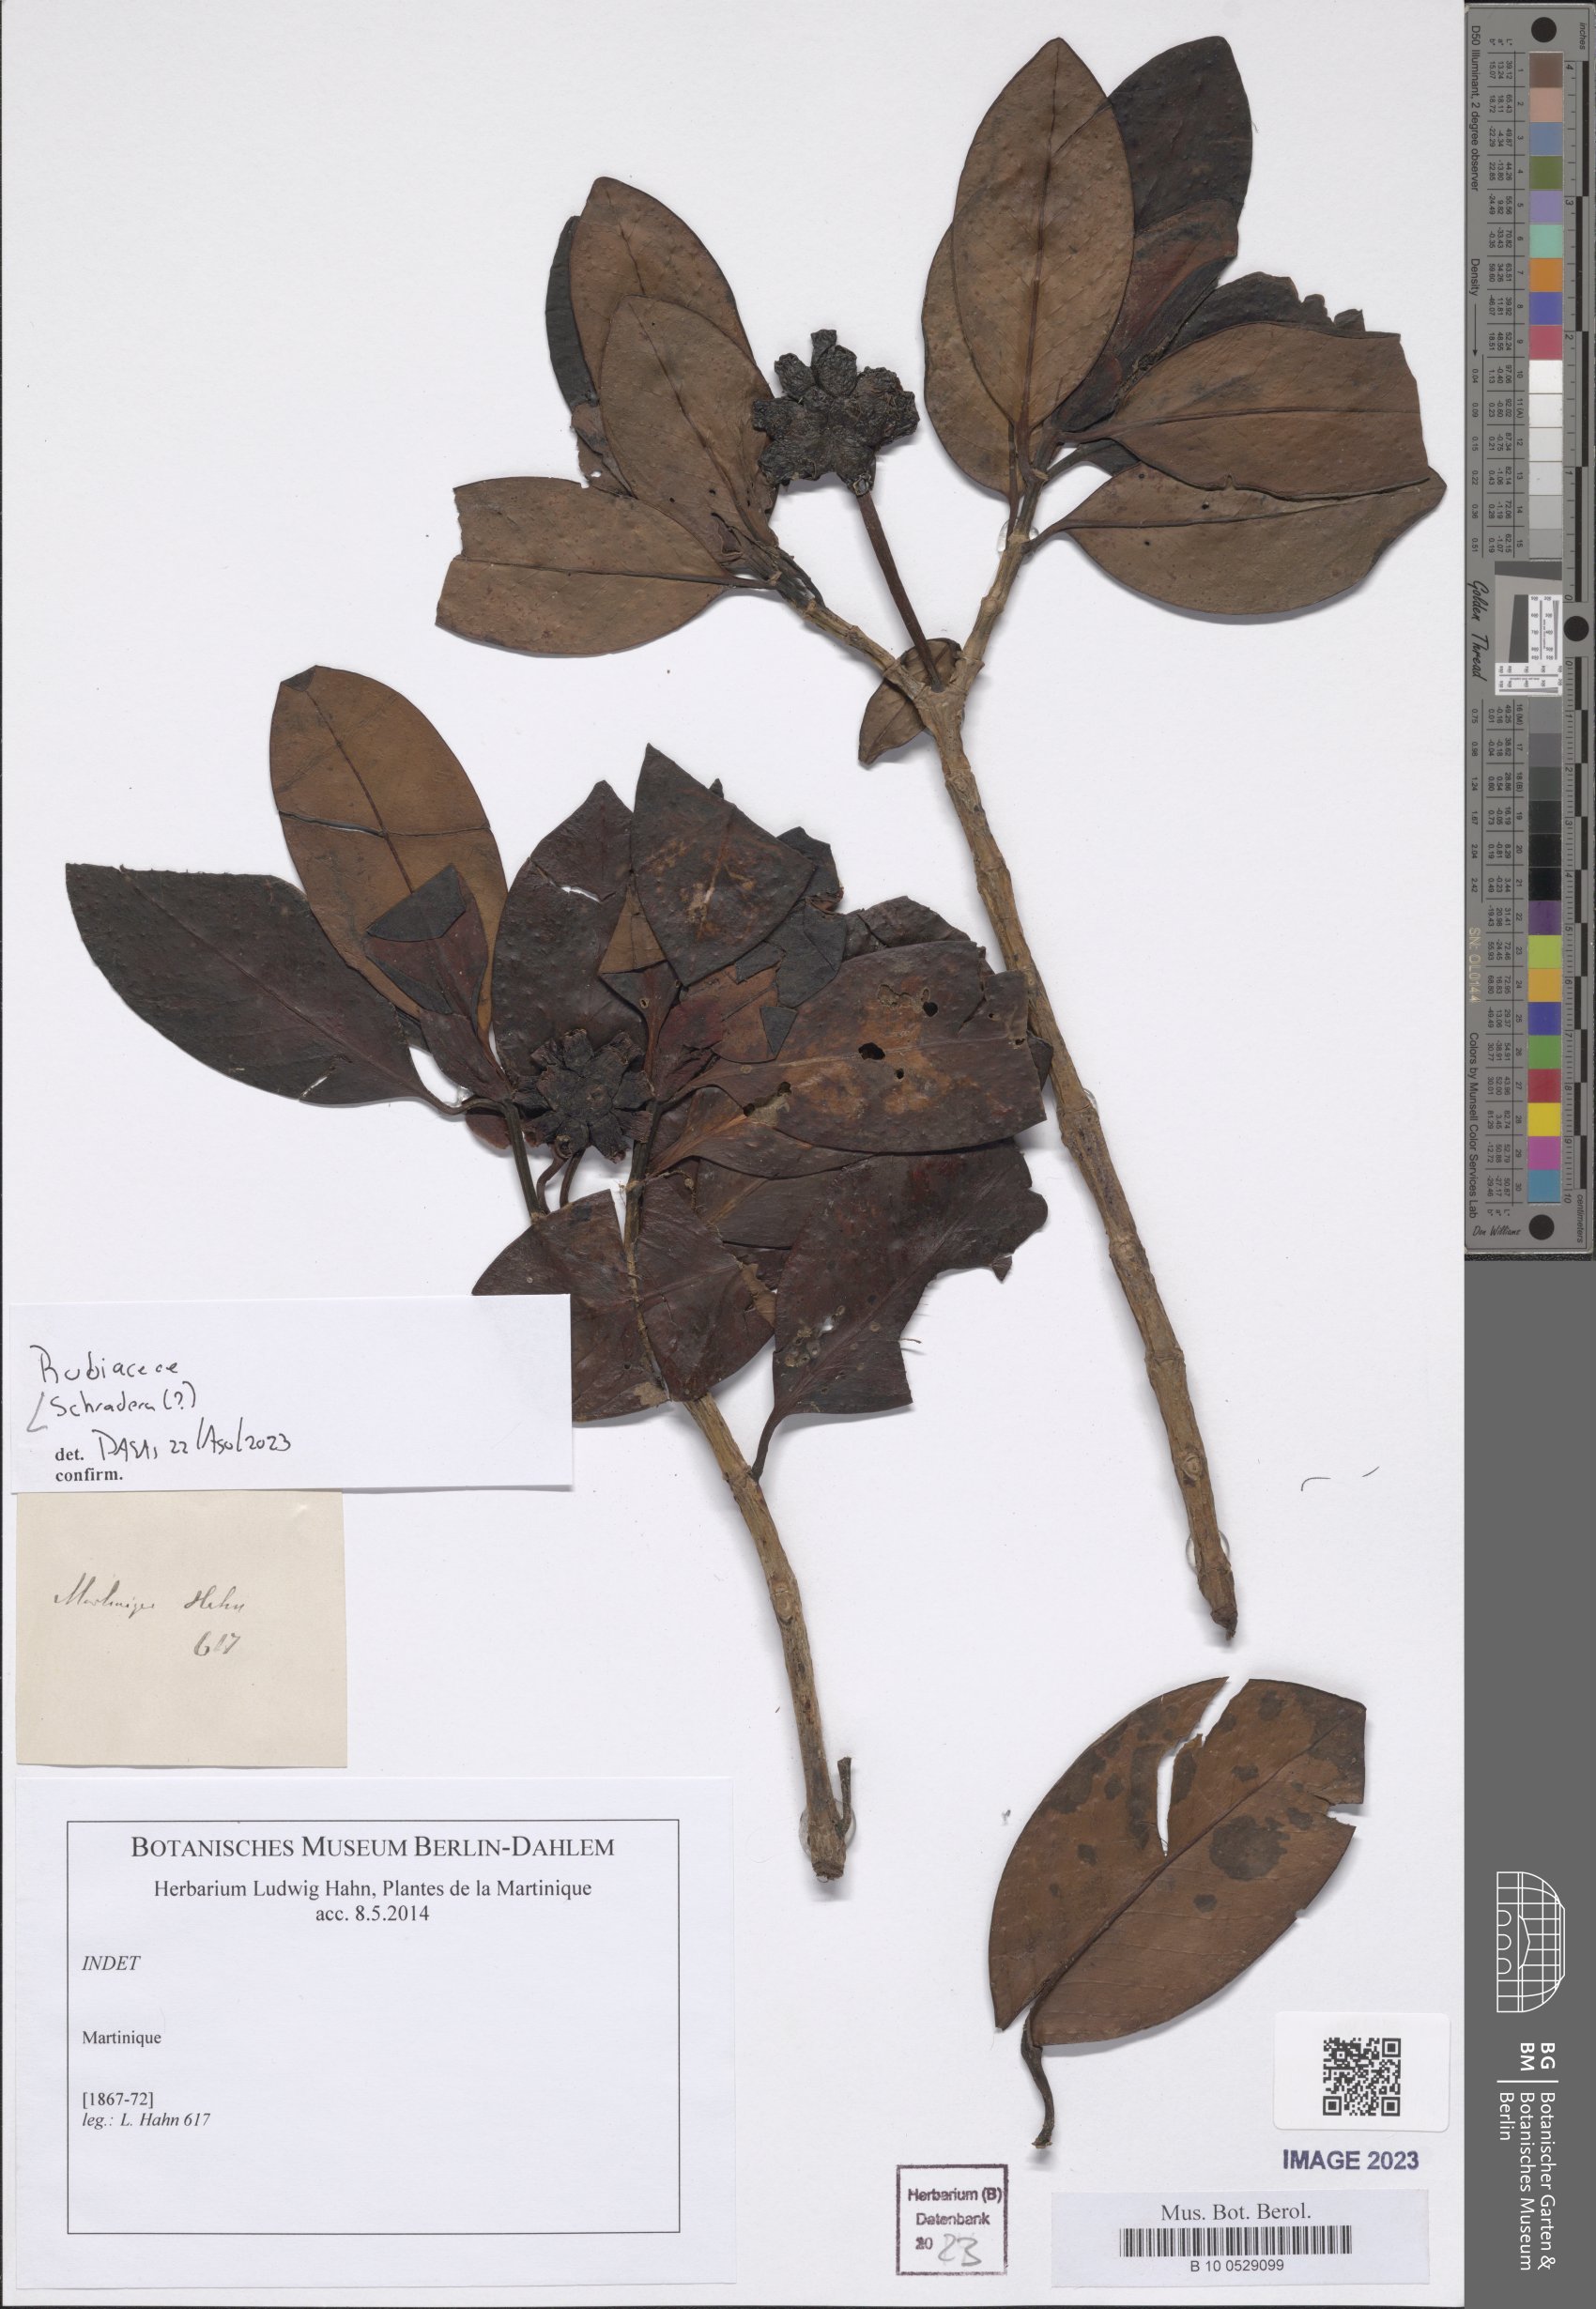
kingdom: Plantae
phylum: Tracheophyta
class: Magnoliopsida
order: Gentianales
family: Rubiaceae
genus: Schradera
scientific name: Schradera
